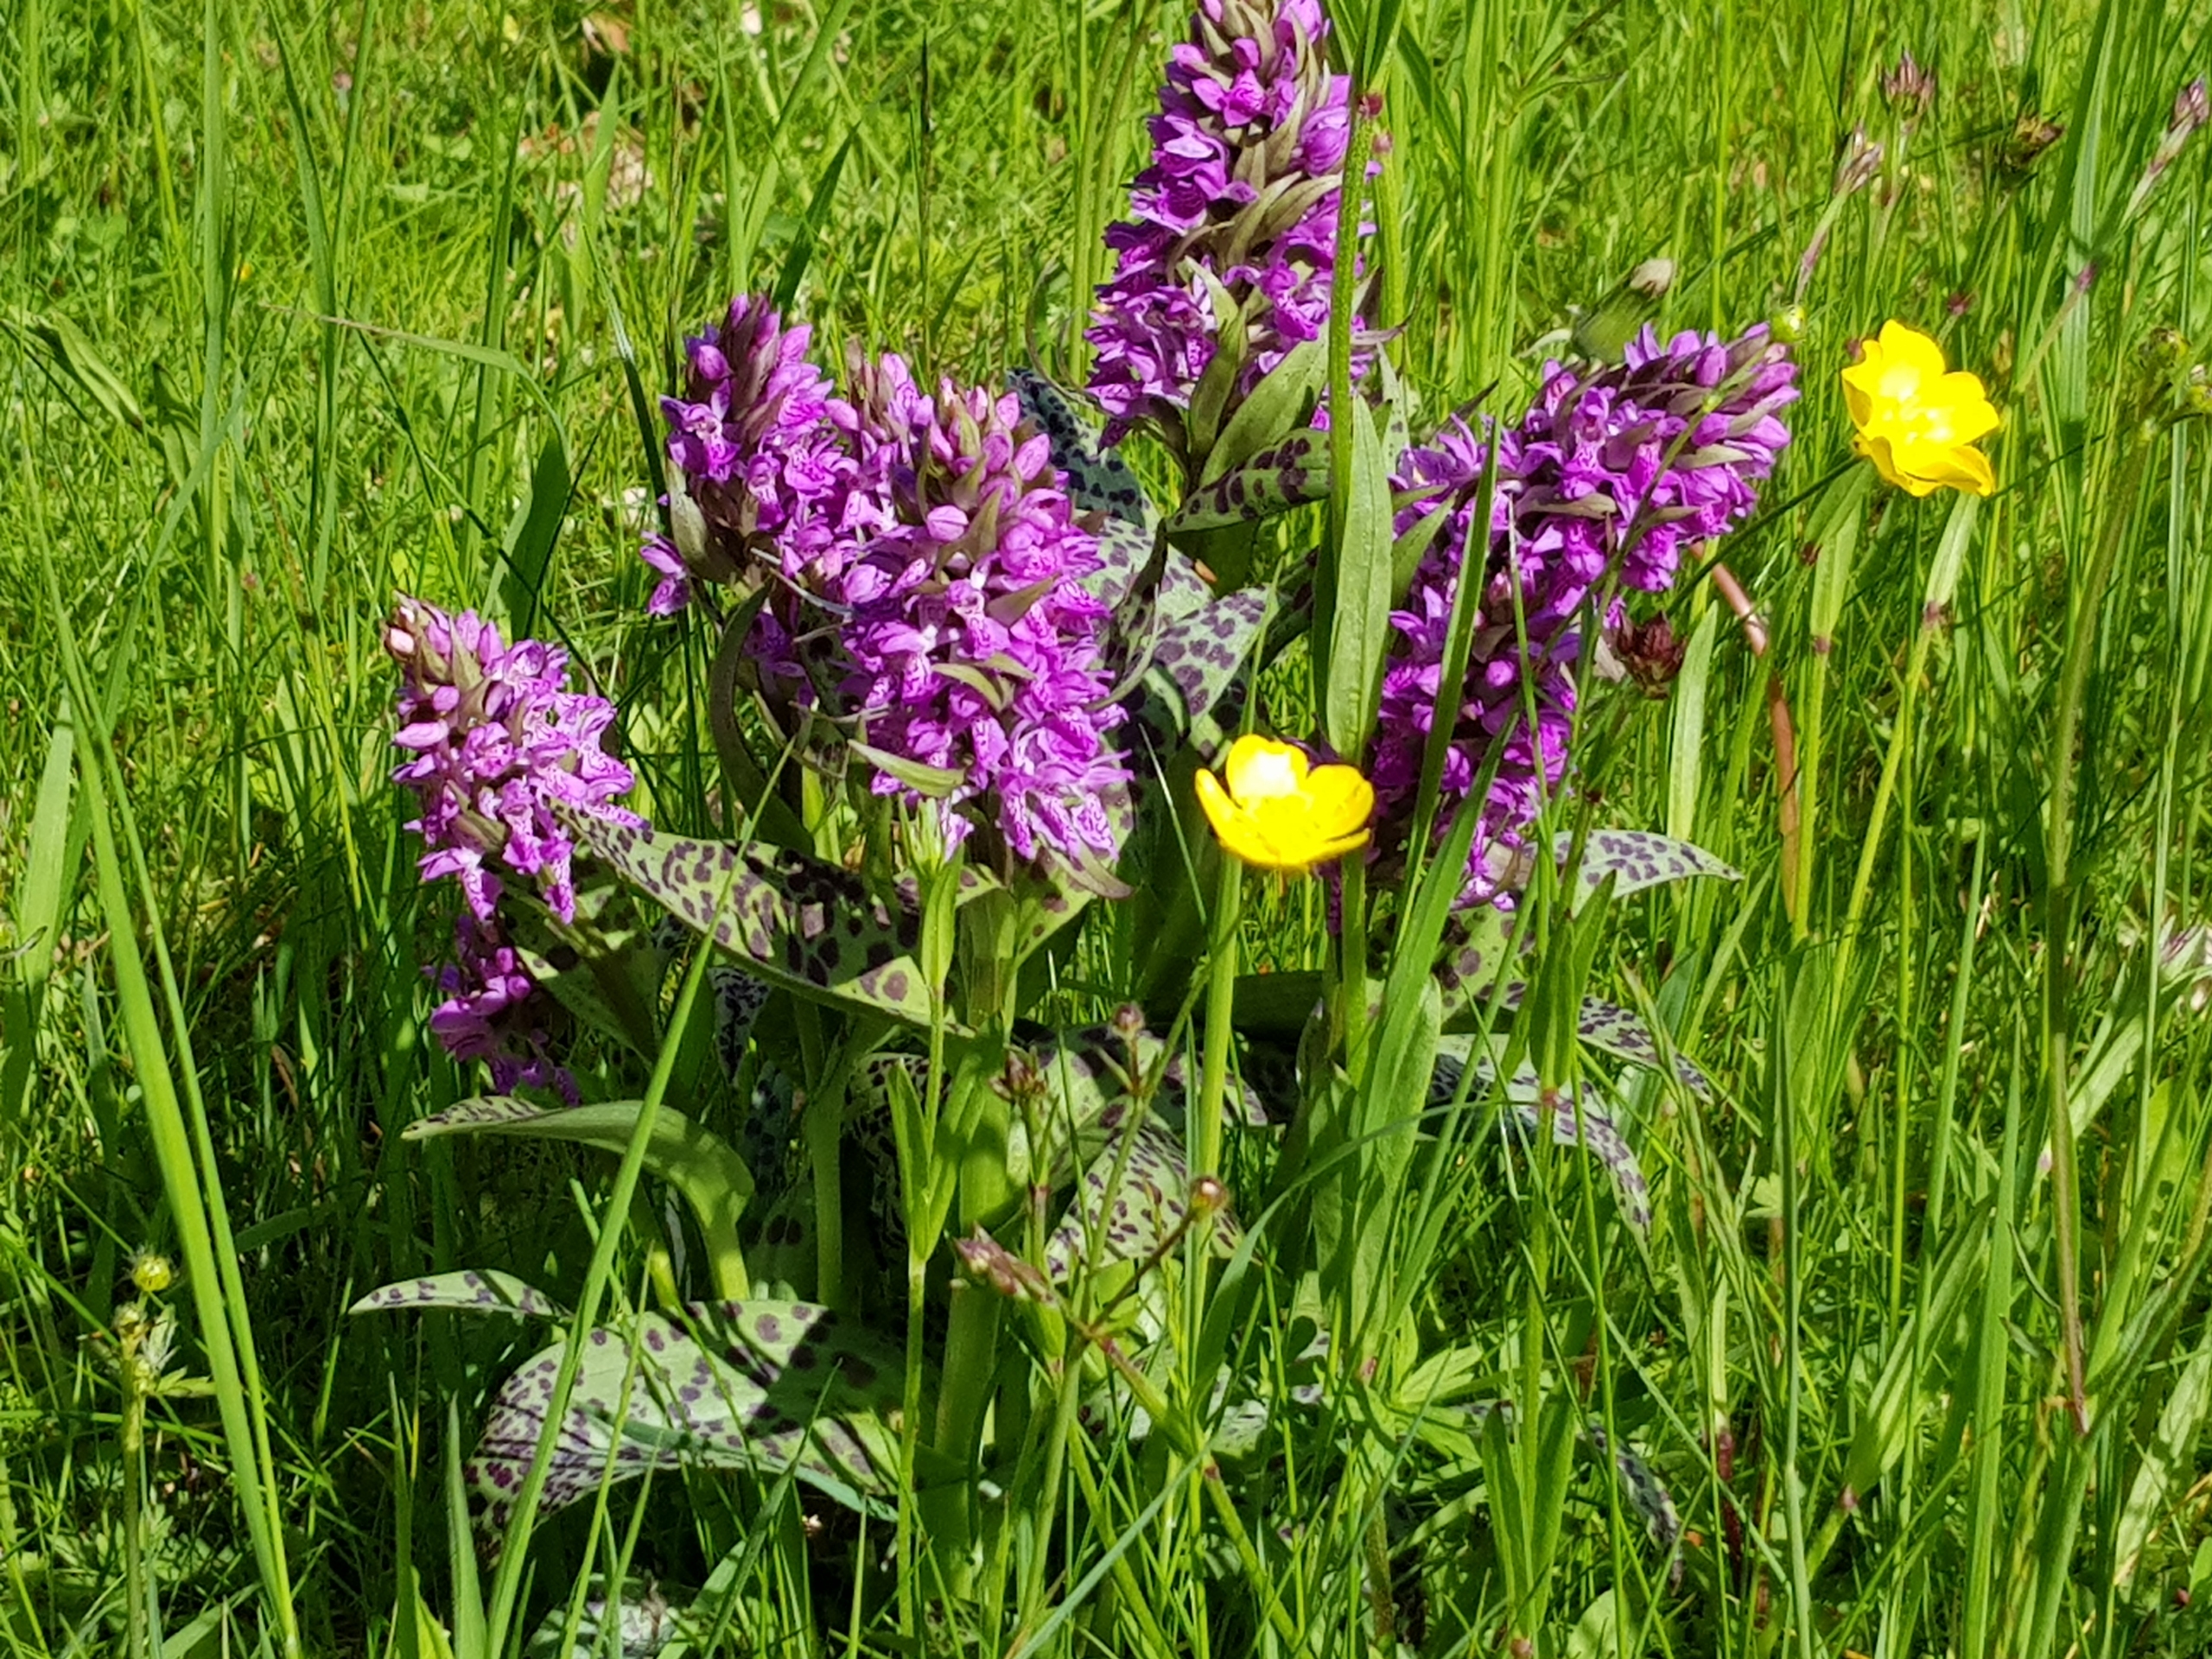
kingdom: Plantae
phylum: Tracheophyta
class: Liliopsida
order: Asparagales
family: Orchidaceae
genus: Dactylorhiza
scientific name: Dactylorhiza majalis
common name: Maj-gøgeurt
